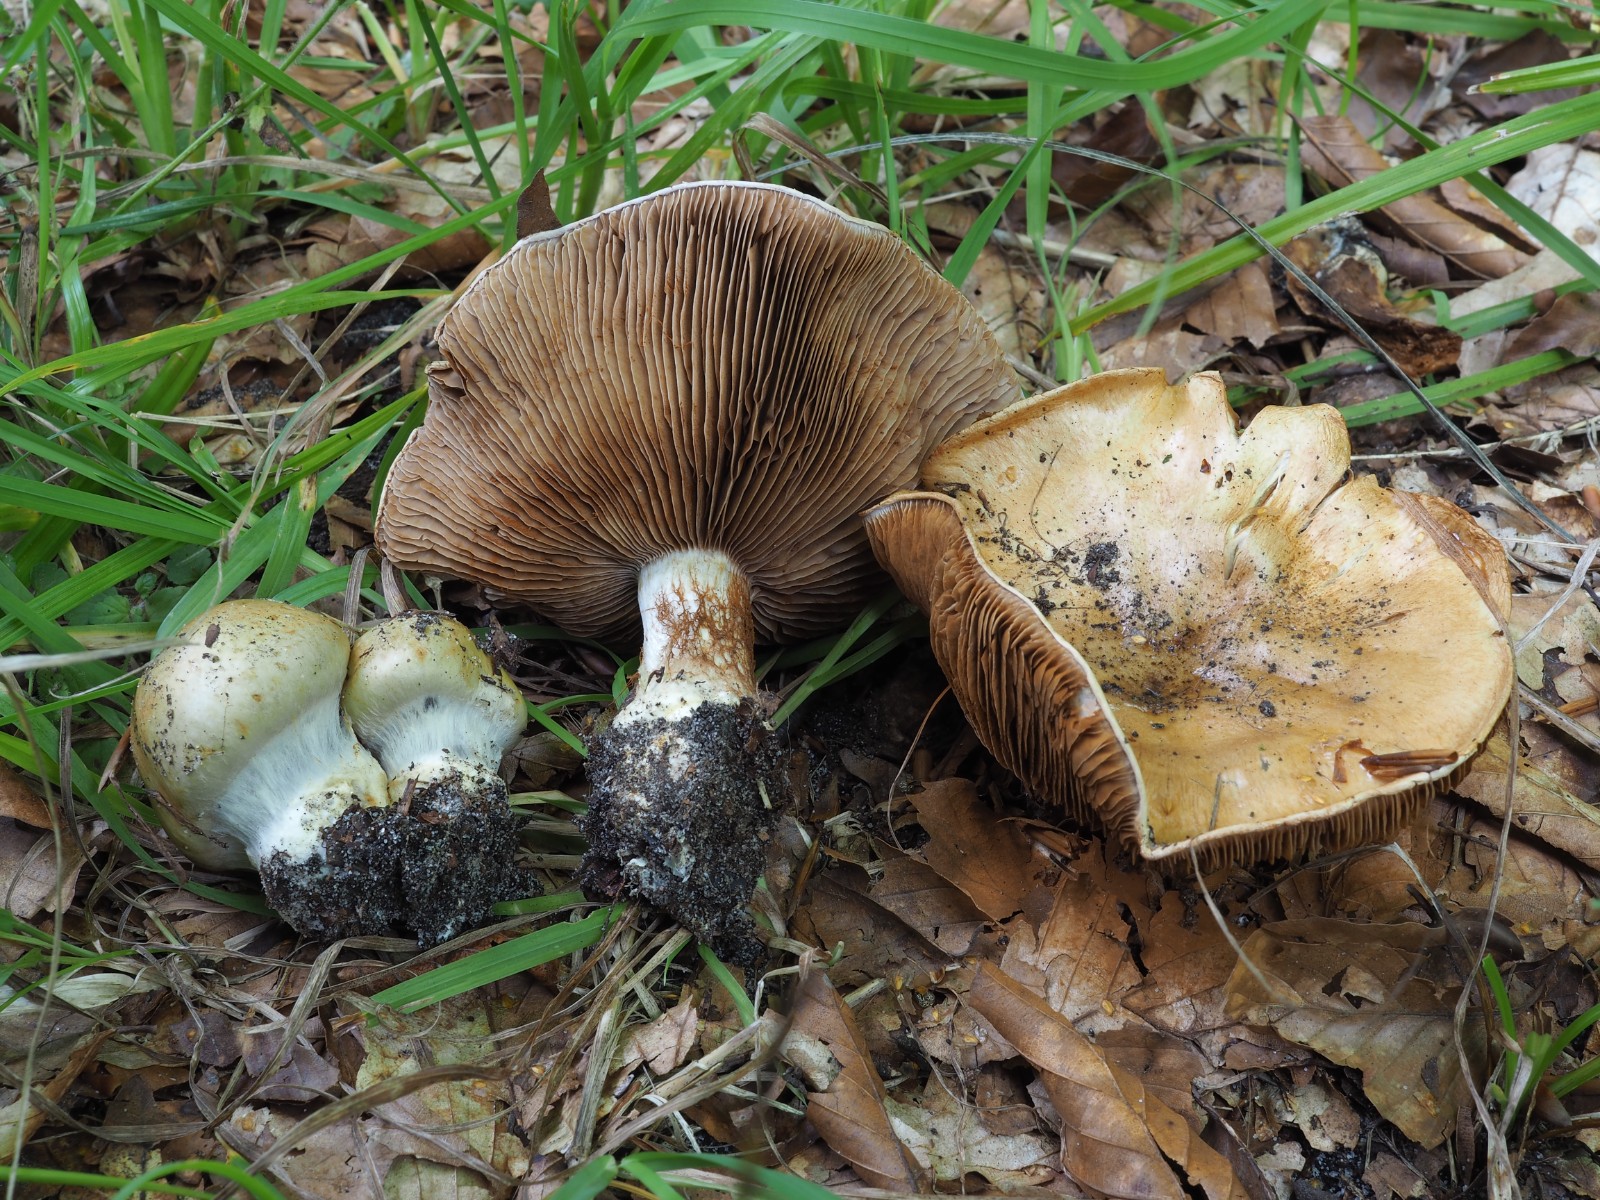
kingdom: Fungi
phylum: Basidiomycota
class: Agaricomycetes
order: Agaricales
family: Cortinariaceae
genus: Cortinarius
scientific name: Cortinarius anserinus
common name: bøge-slørhat
